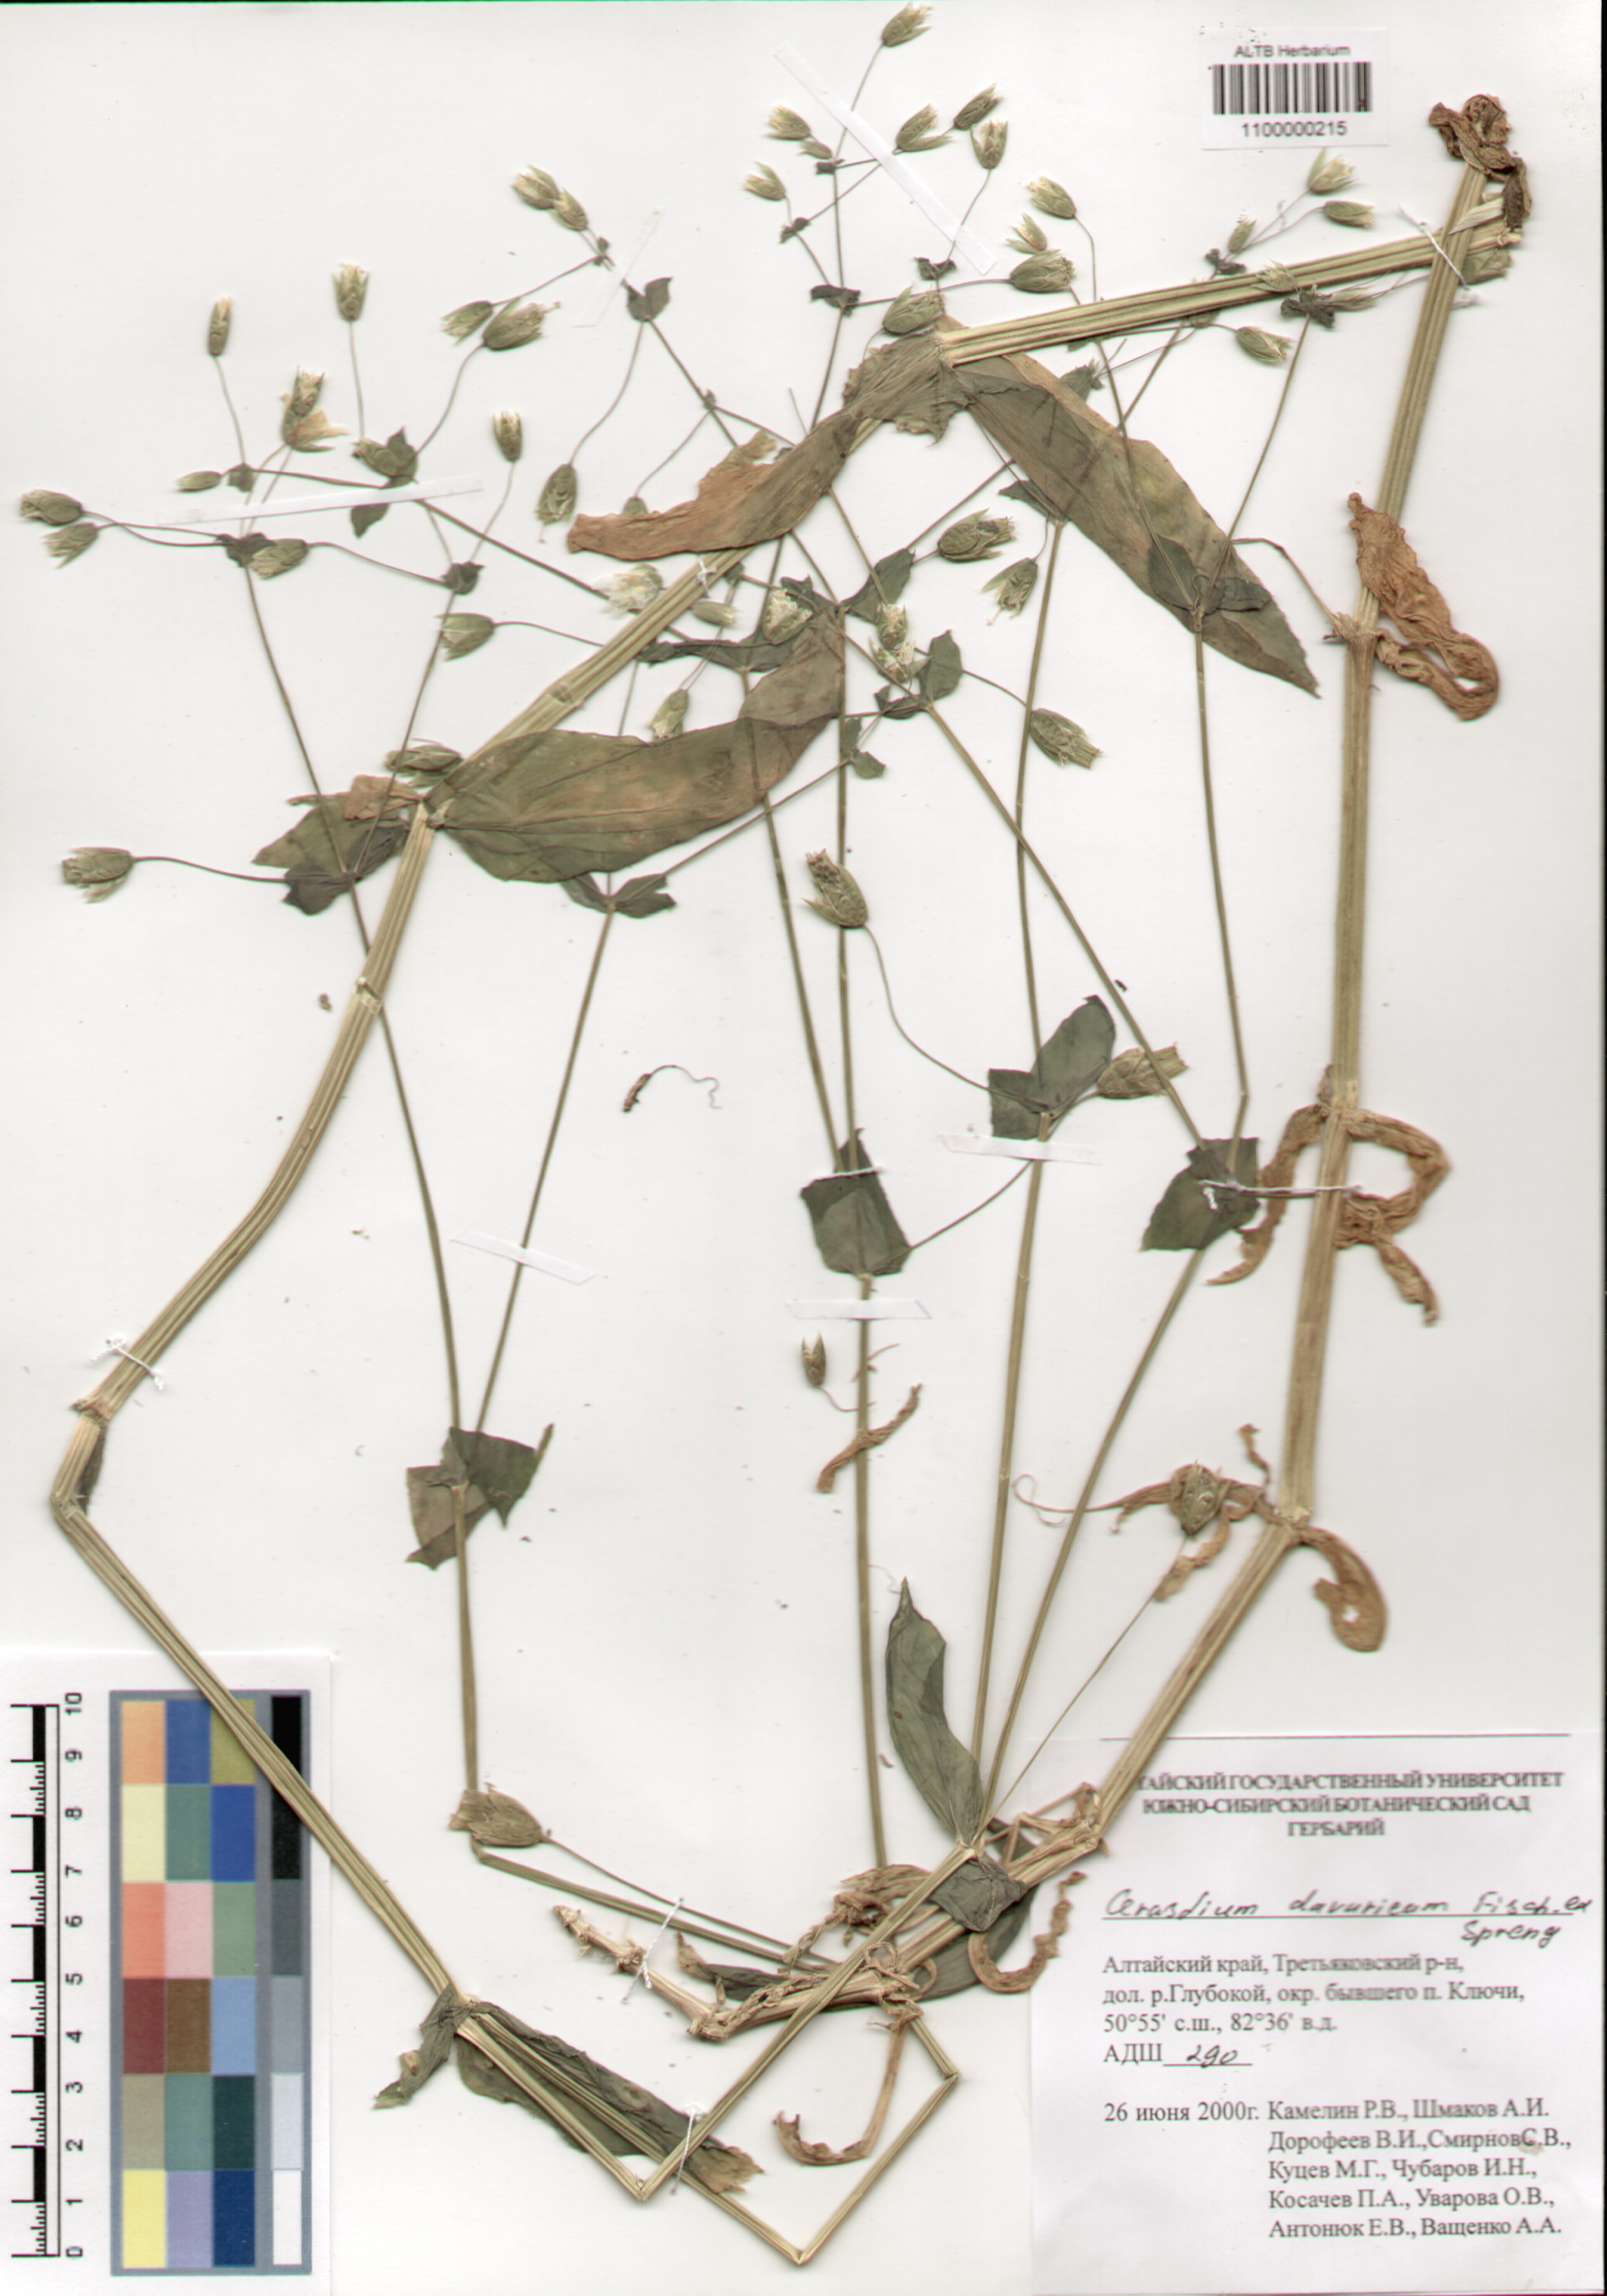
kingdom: Plantae
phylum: Tracheophyta
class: Magnoliopsida
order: Caryophyllales
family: Caryophyllaceae
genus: Dichodon
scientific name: Dichodon davuricum
